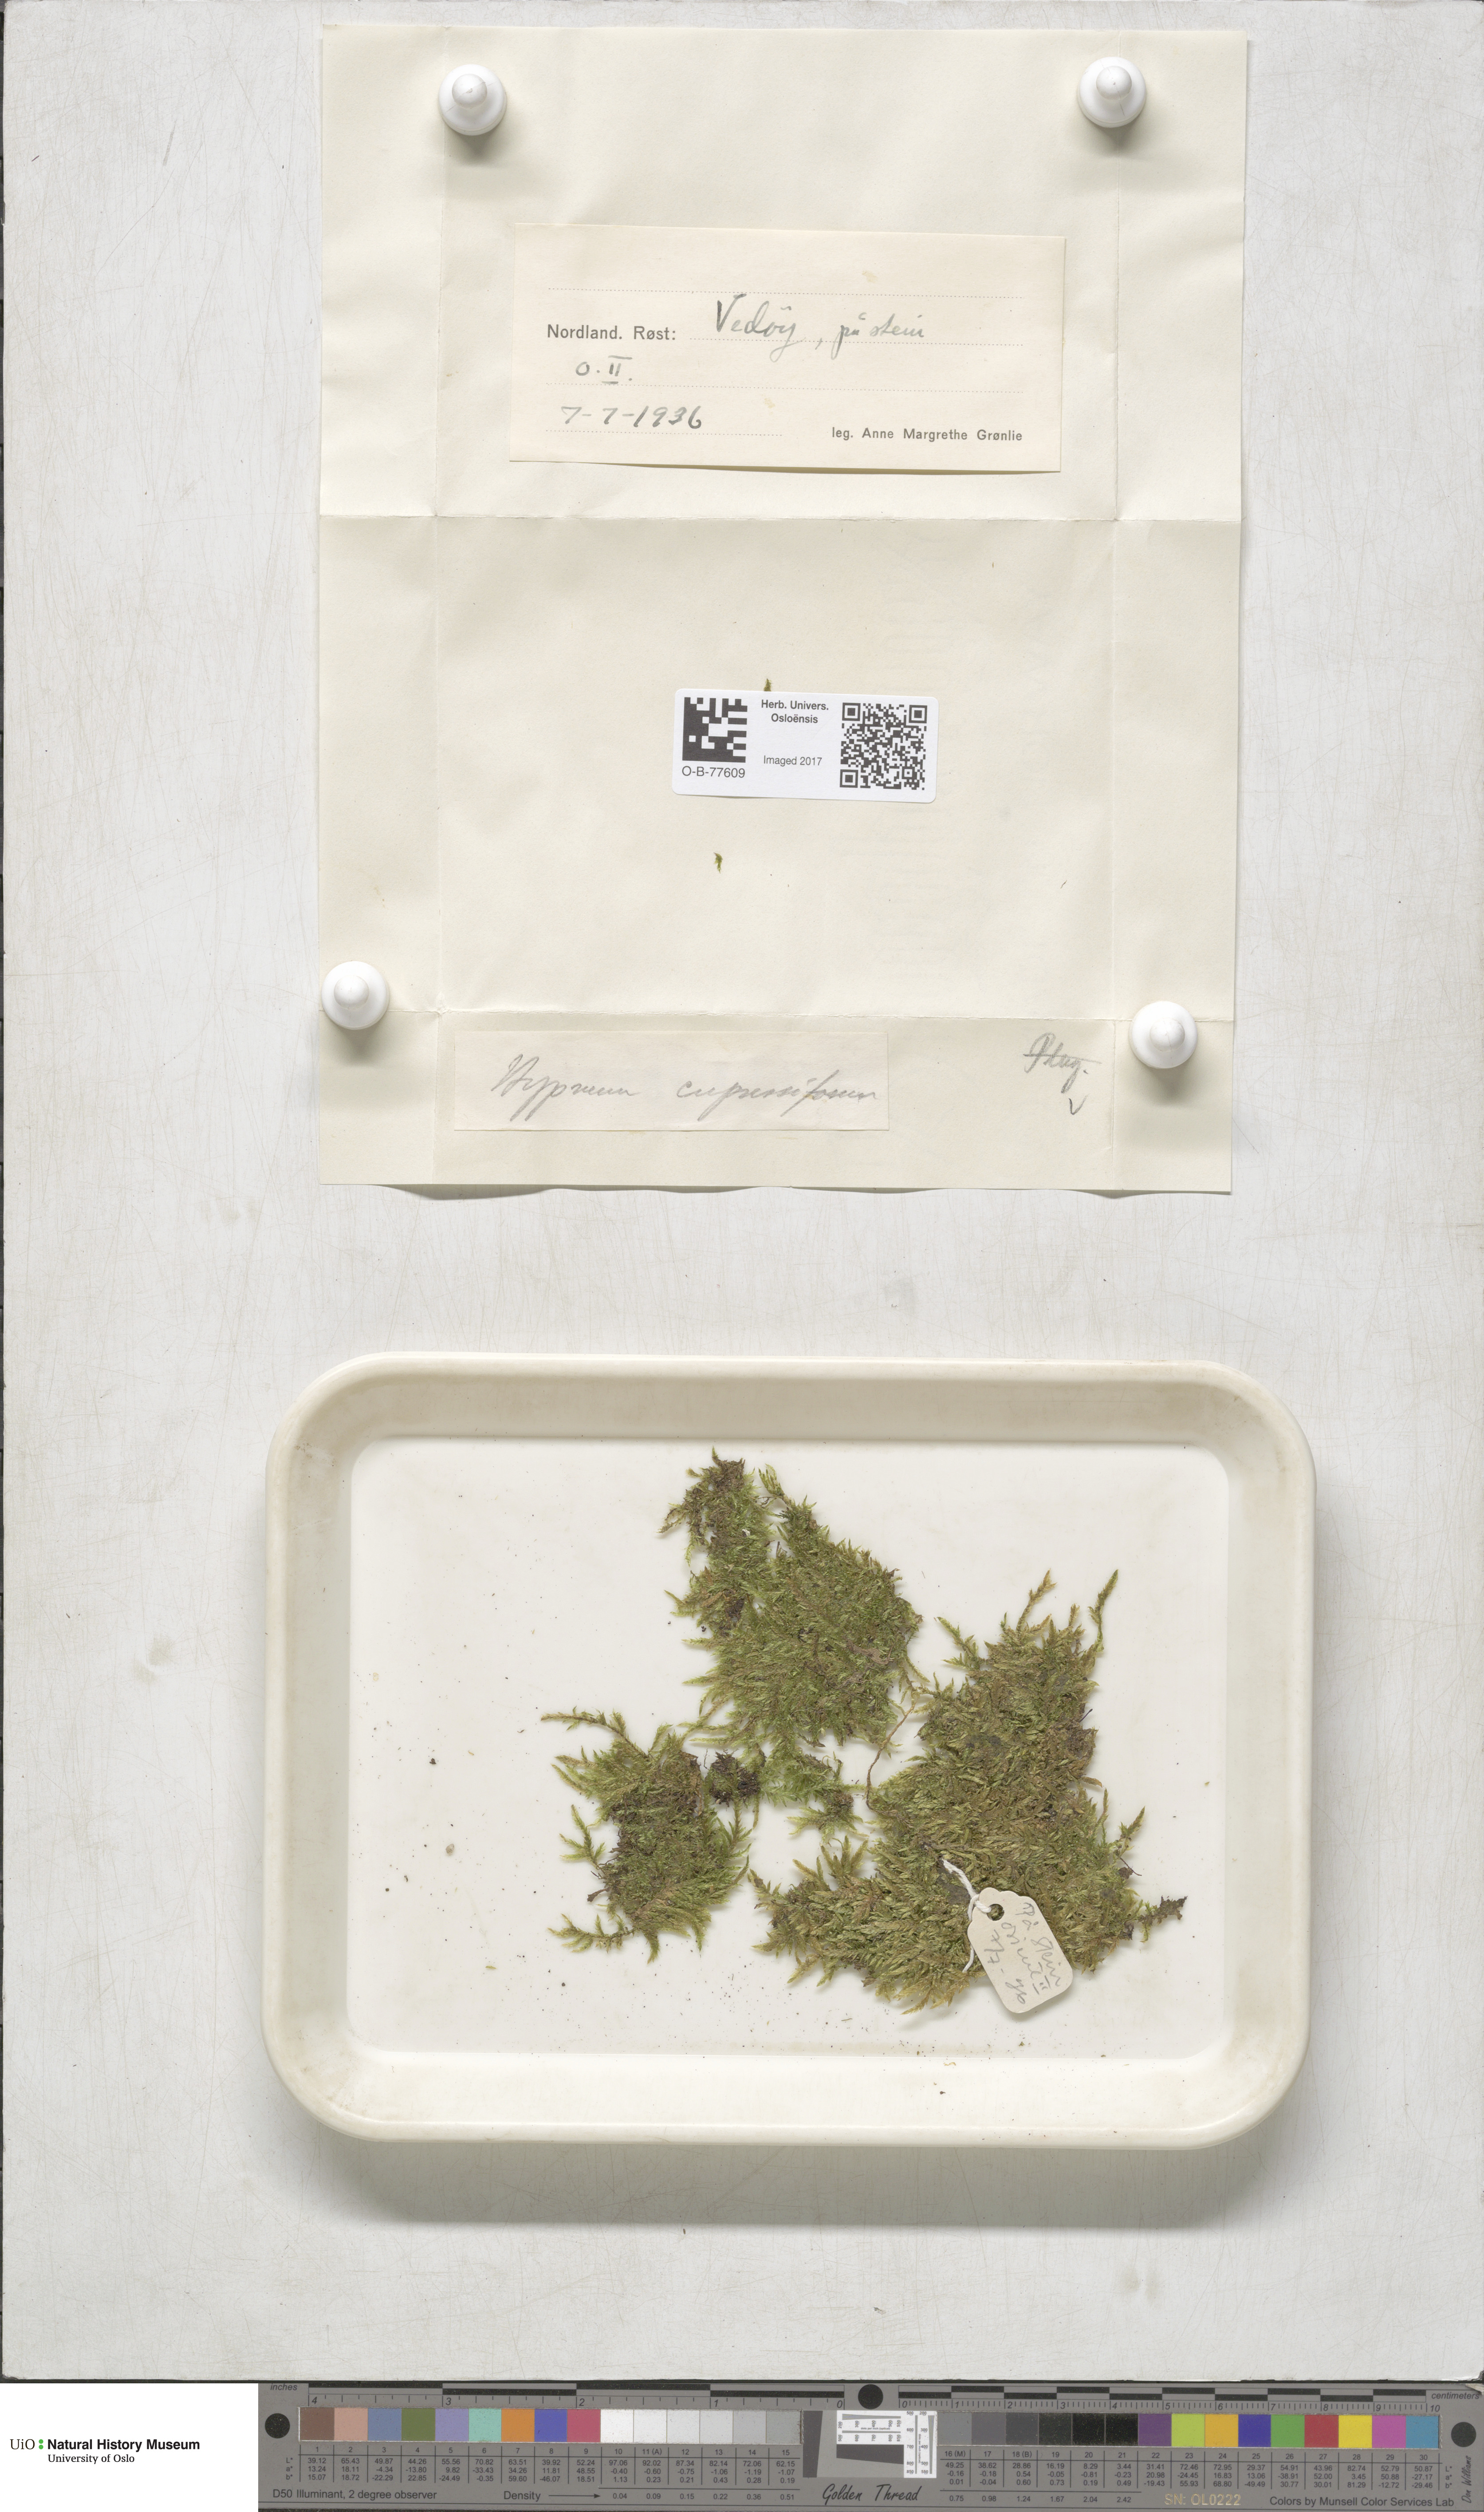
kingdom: Plantae
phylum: Bryophyta
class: Bryopsida
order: Hypnales
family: Hypnaceae
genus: Hypnum
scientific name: Hypnum cupressiforme
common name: Cypress-leaved plait-moss
